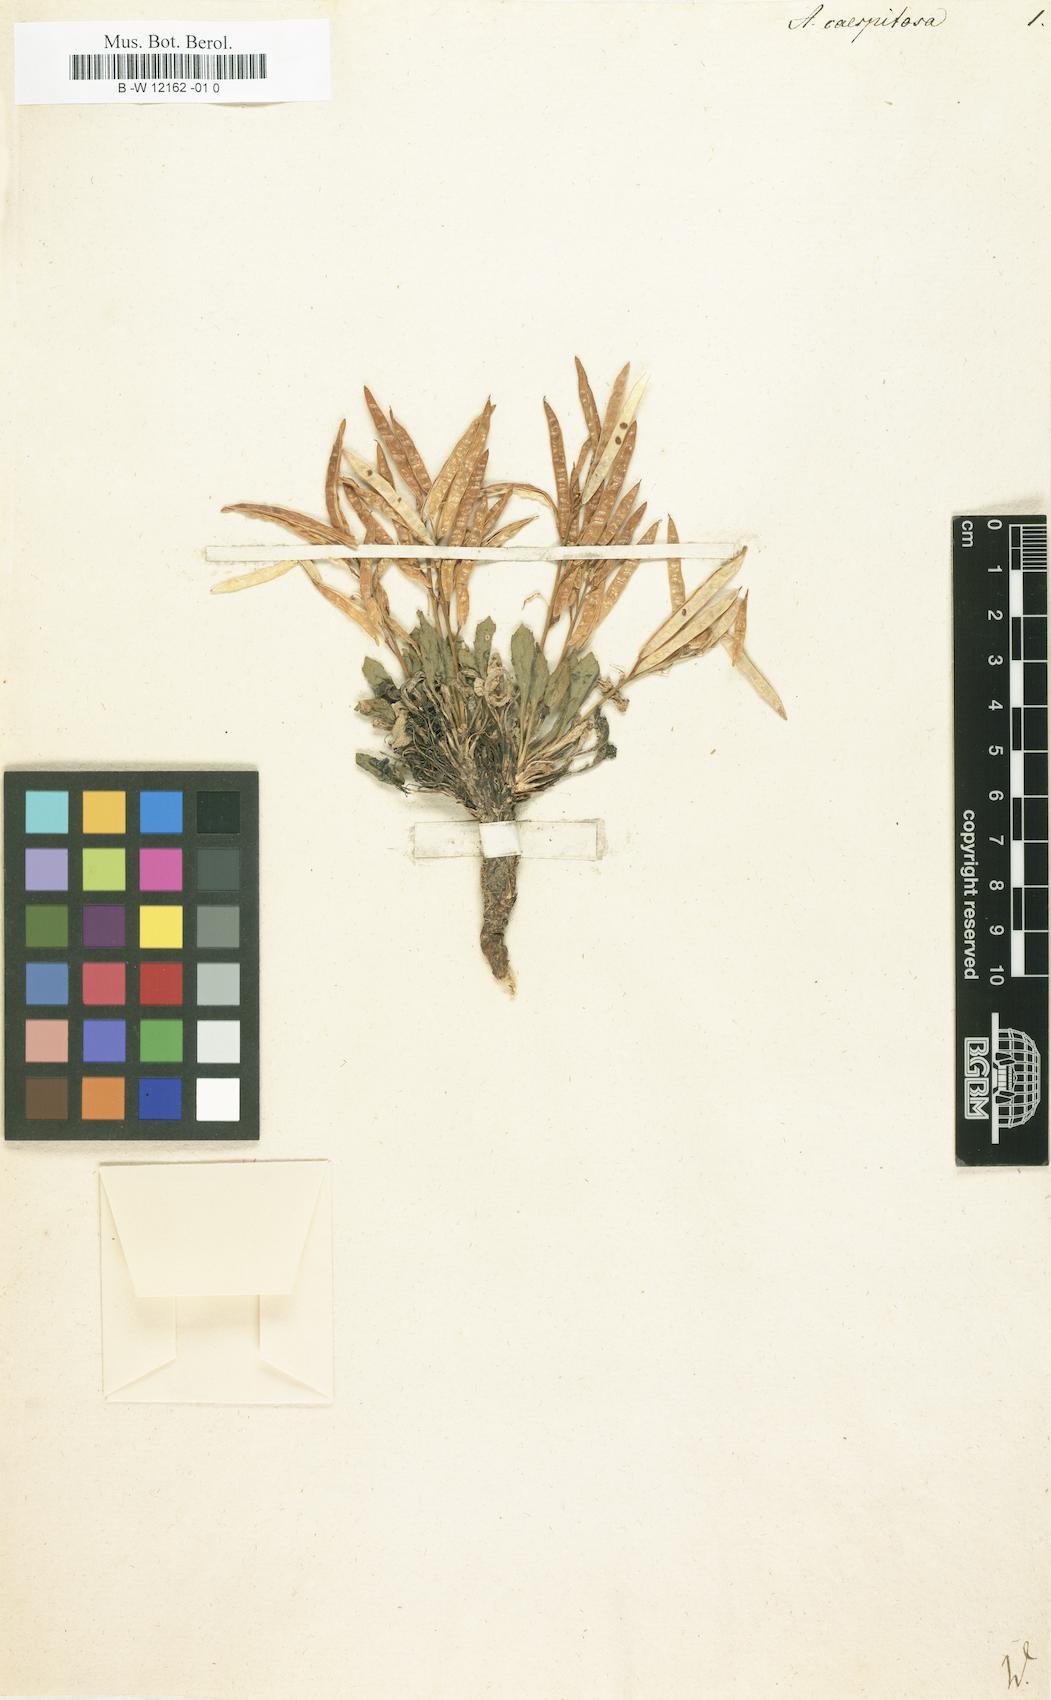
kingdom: Plantae
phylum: Tracheophyta
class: Magnoliopsida
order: Brassicales
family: Brassicaceae
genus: Arabis
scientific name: Arabis caespitosa
